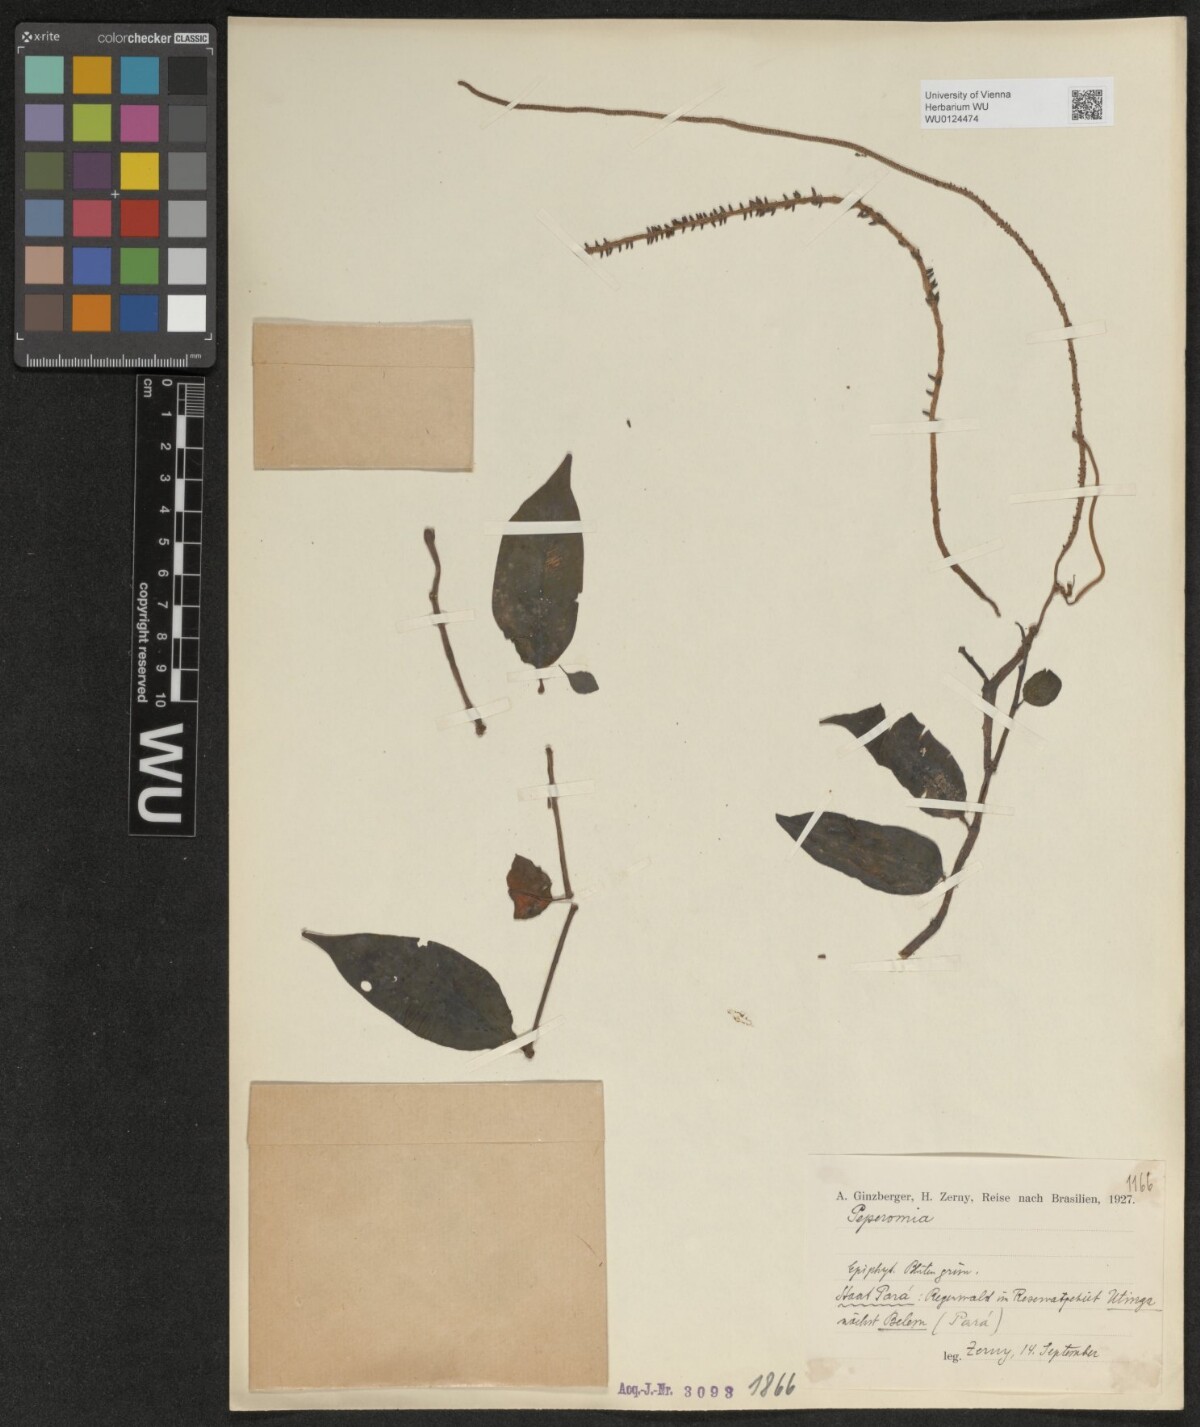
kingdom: Plantae
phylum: Tracheophyta
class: Magnoliopsida
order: Piperales
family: Piperaceae
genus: Peperomia
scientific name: Peperomia
